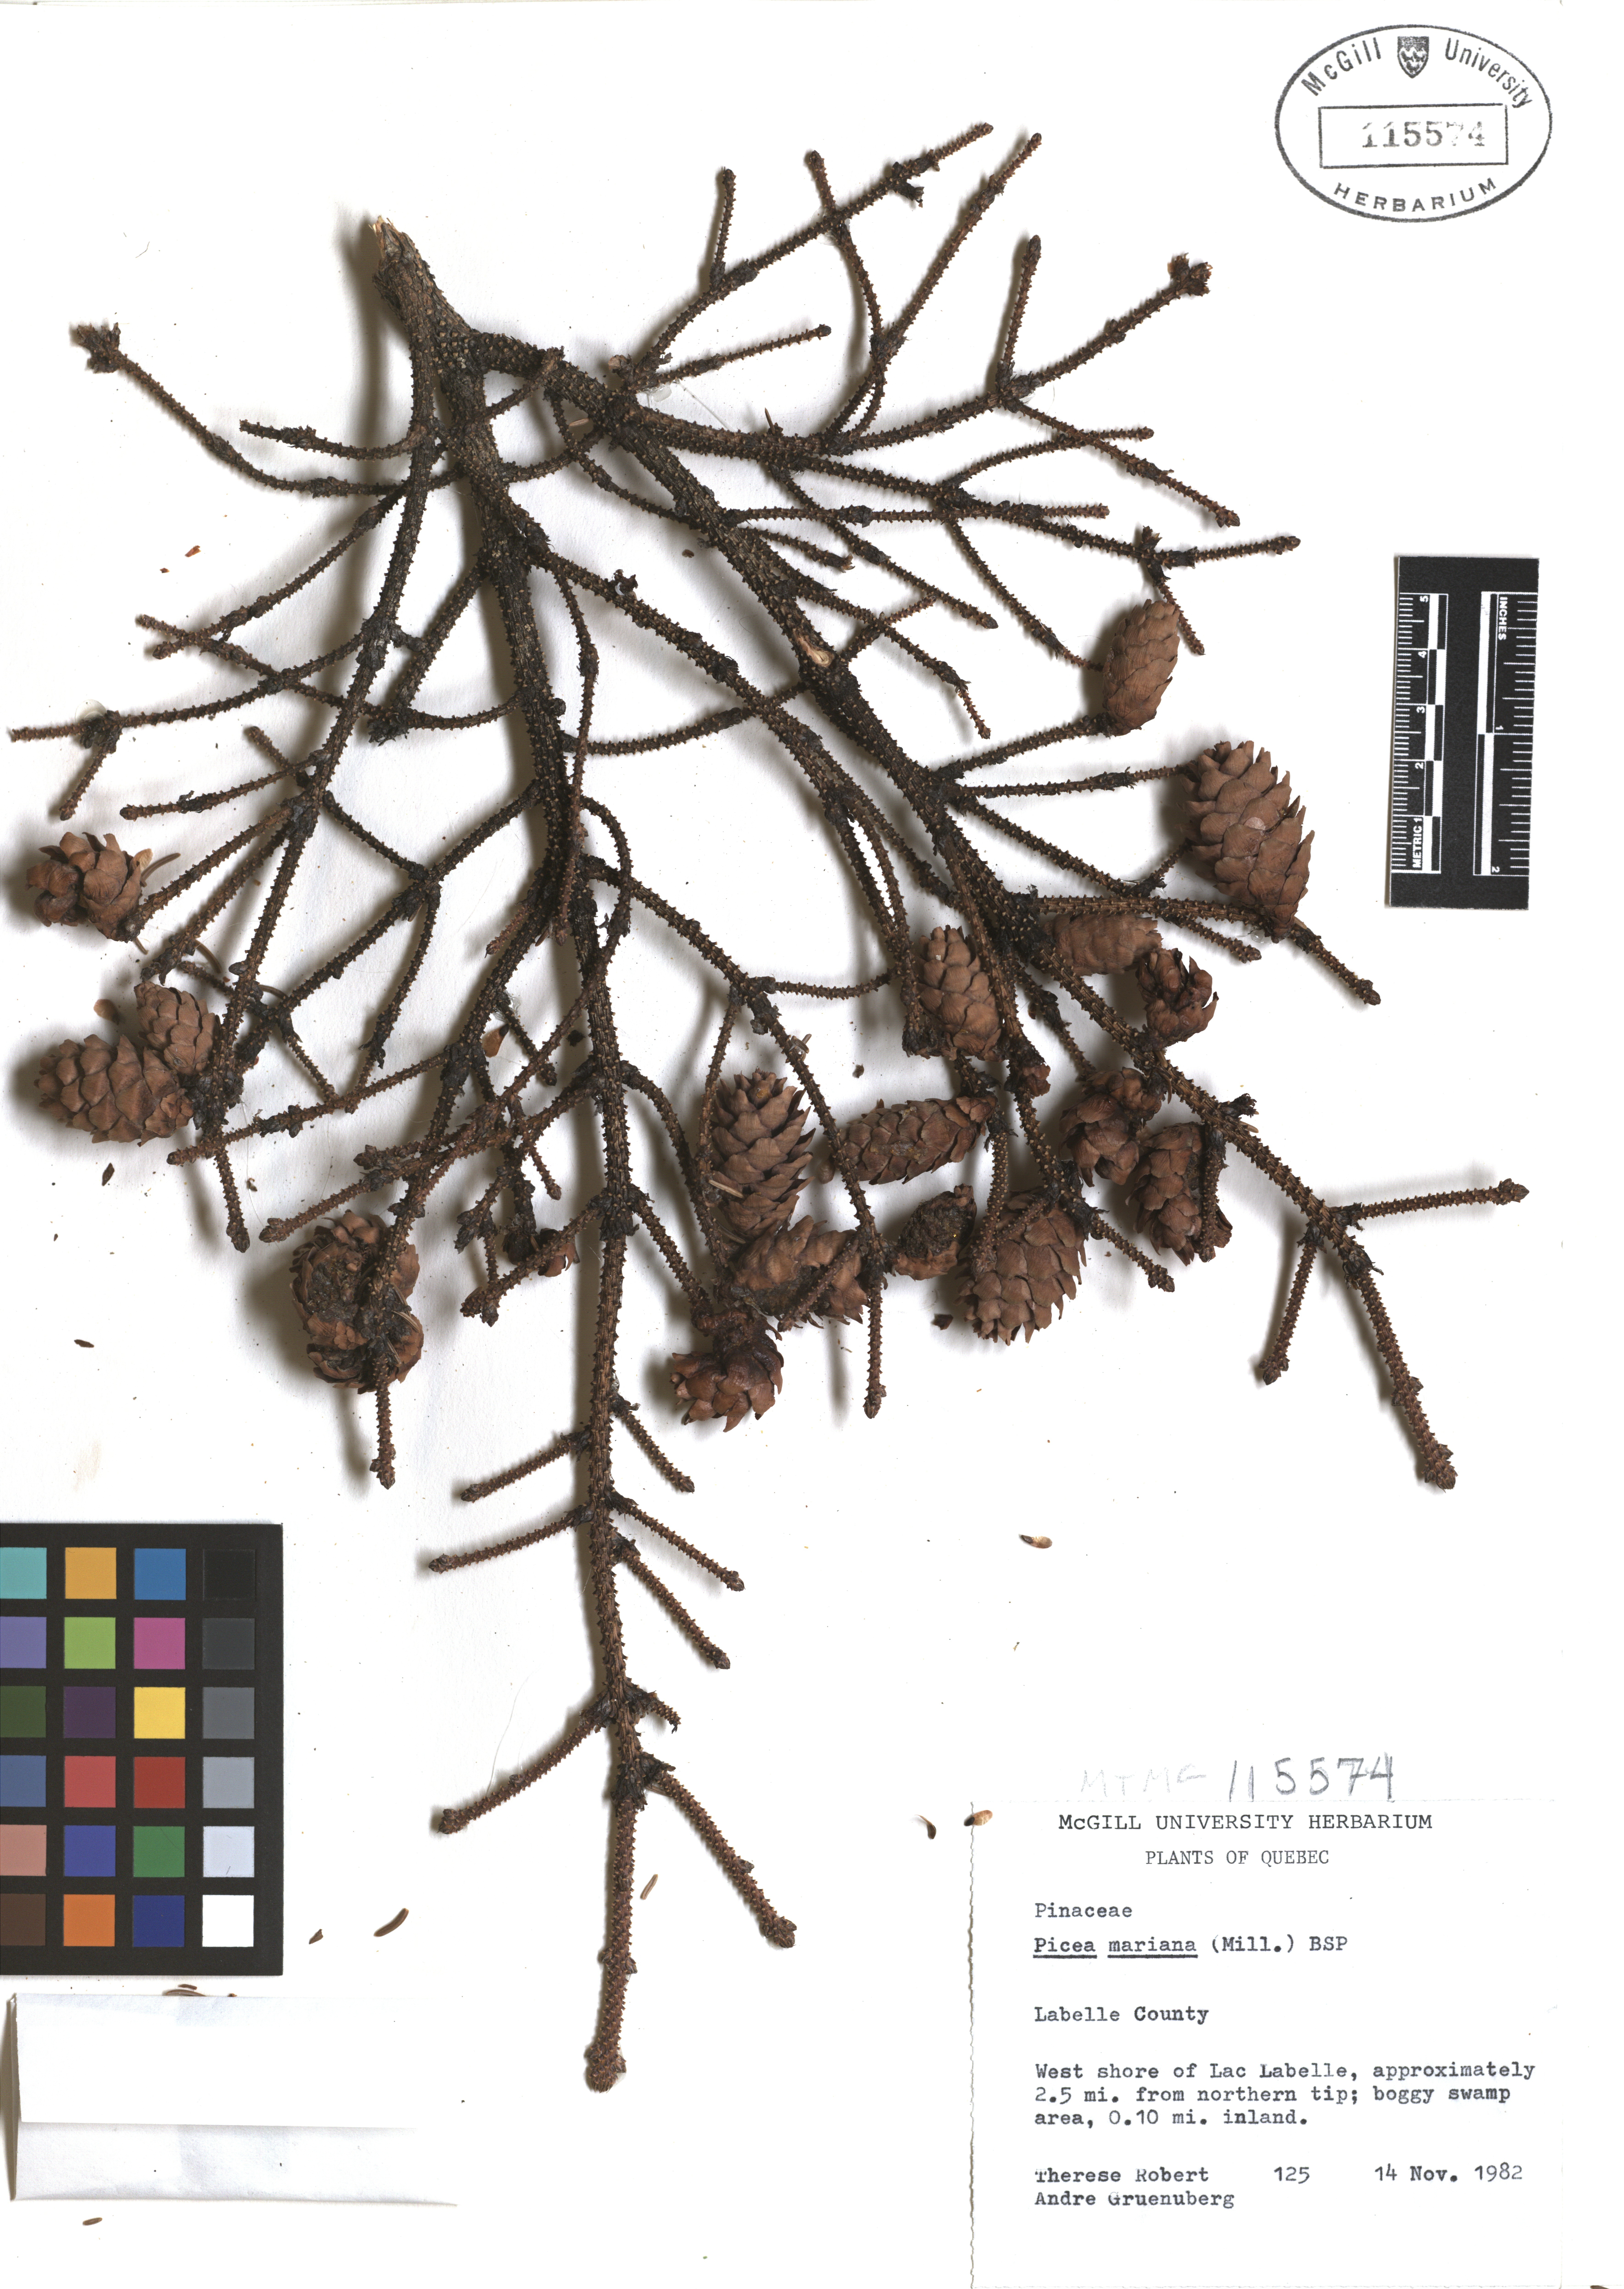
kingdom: Plantae
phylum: Tracheophyta
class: Pinopsida
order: Pinales
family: Pinaceae
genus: Picea
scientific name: Picea mariana
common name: Black spruce
